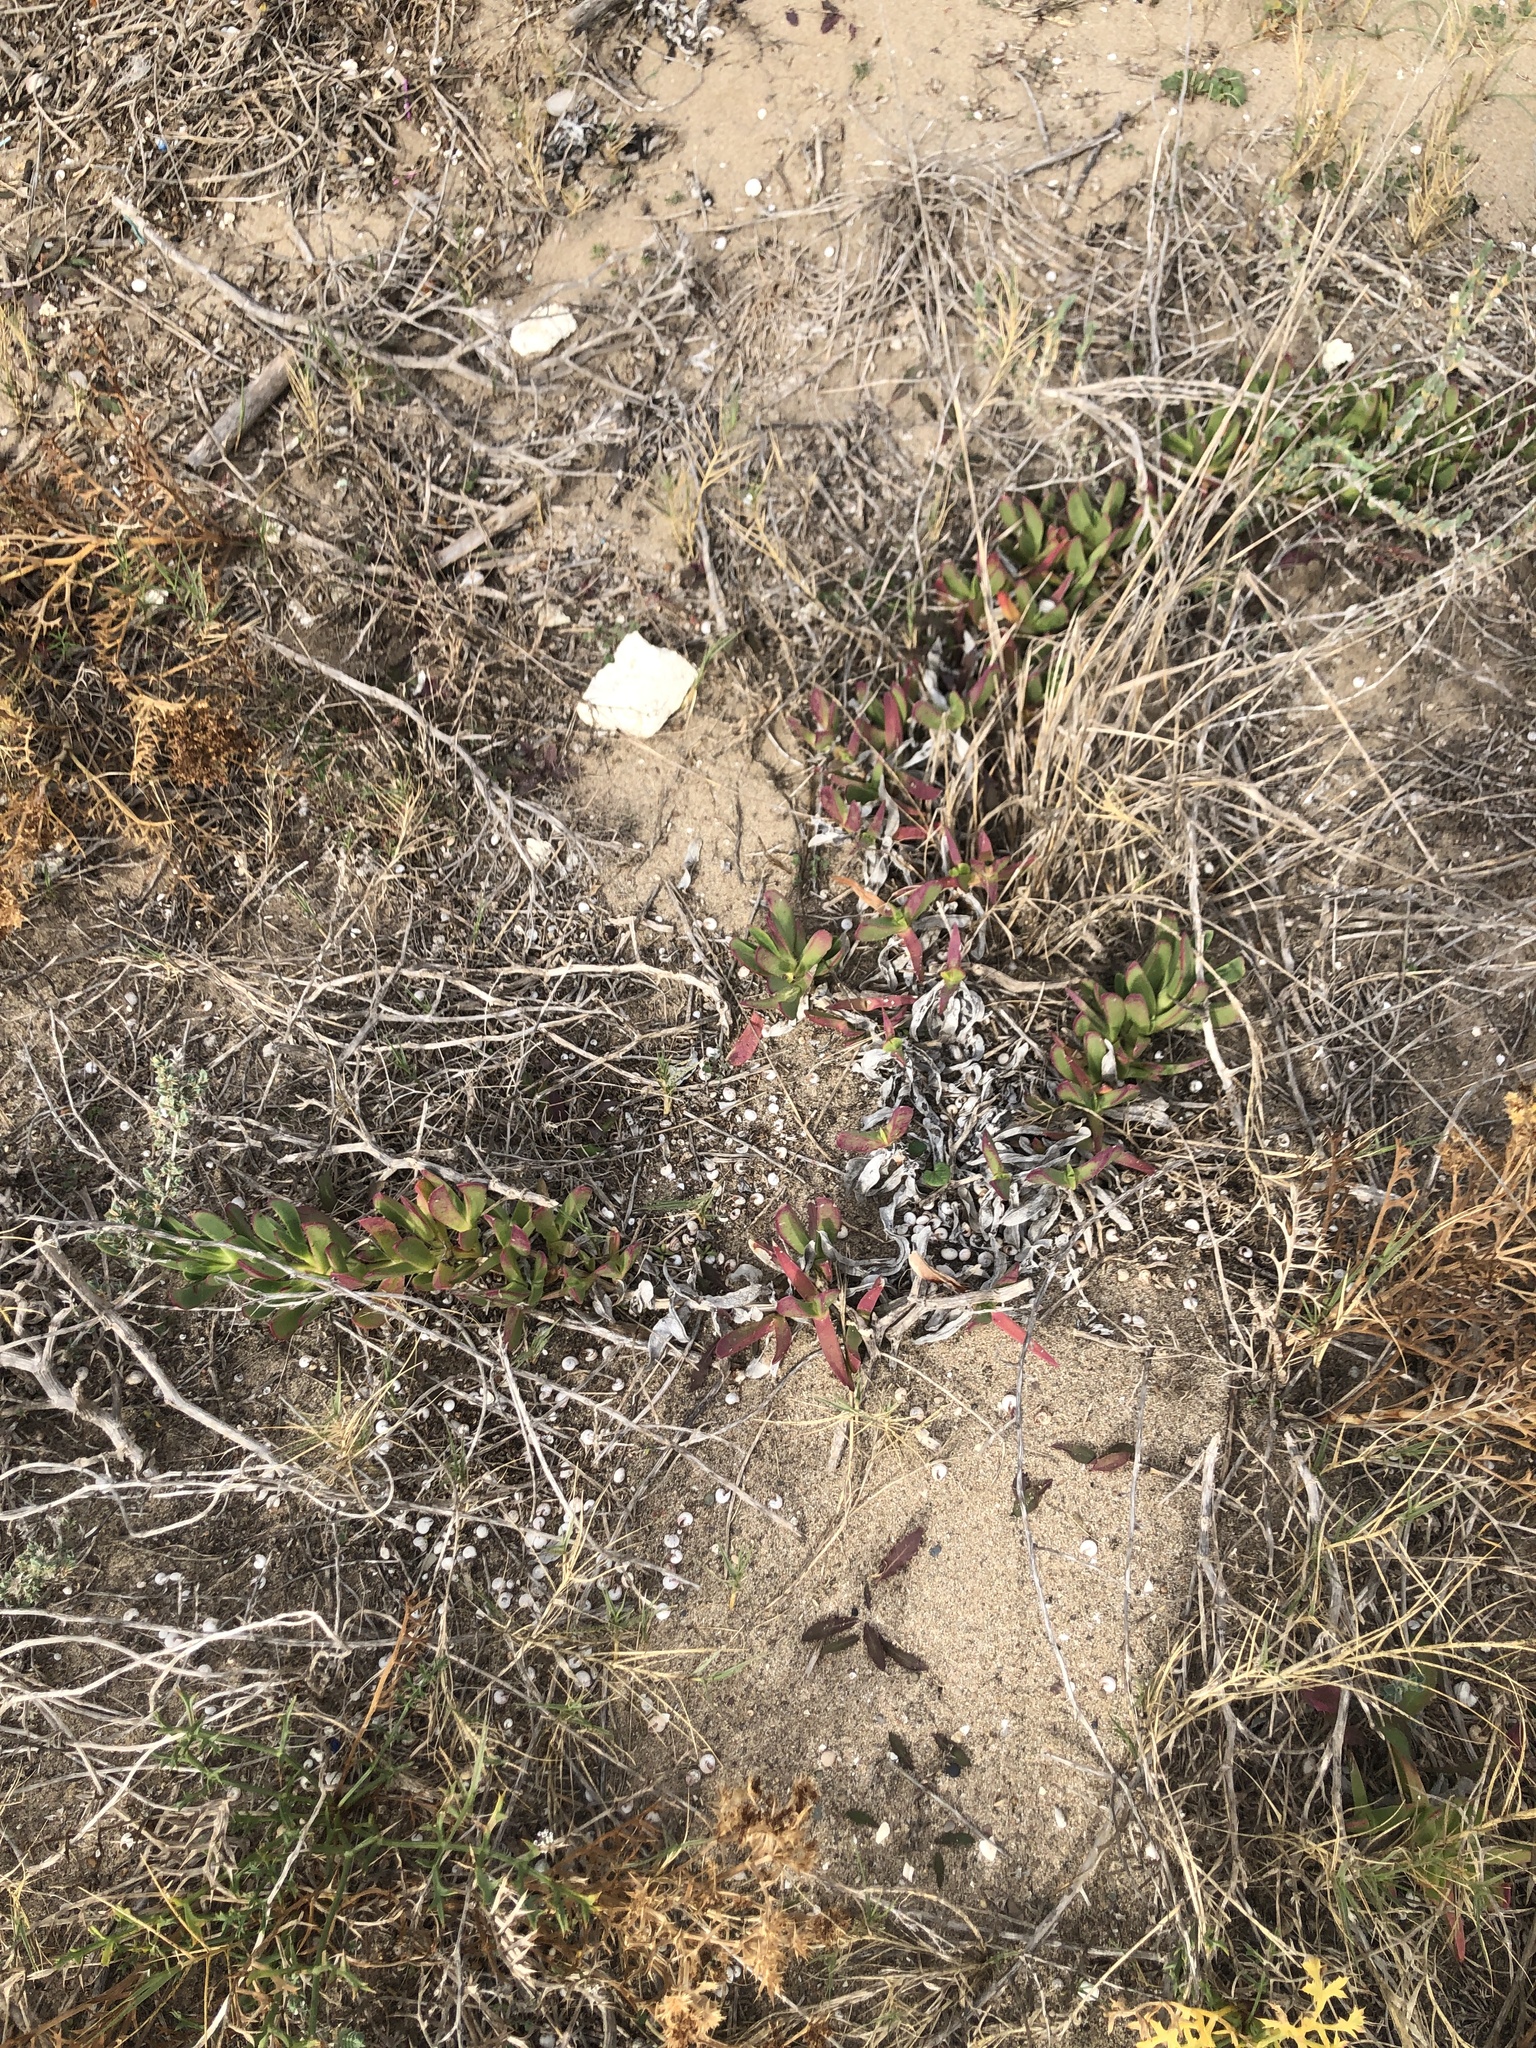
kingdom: Plantae
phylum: Tracheophyta
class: Magnoliopsida
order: Caryophyllales
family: Aizoaceae
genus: Carpobrotus
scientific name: Carpobrotus edulis
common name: Hottentot-fig
